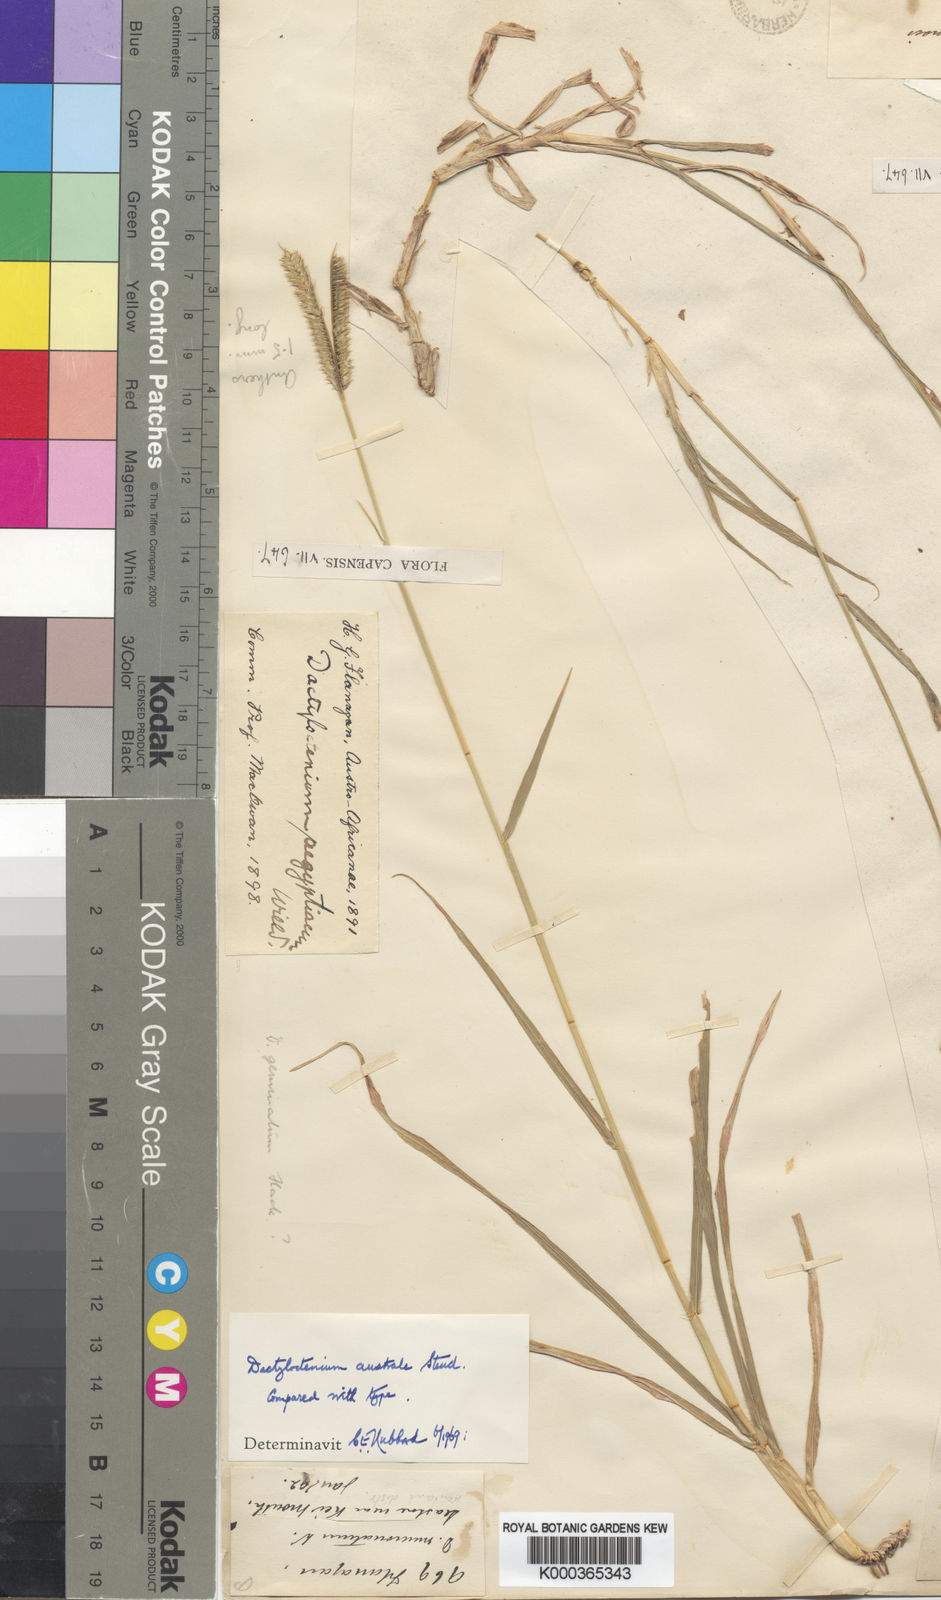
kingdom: Plantae
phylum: Tracheophyta
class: Liliopsida
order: Poales
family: Poaceae
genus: Dactyloctenium
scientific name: Dactyloctenium australe
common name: Durban grass
